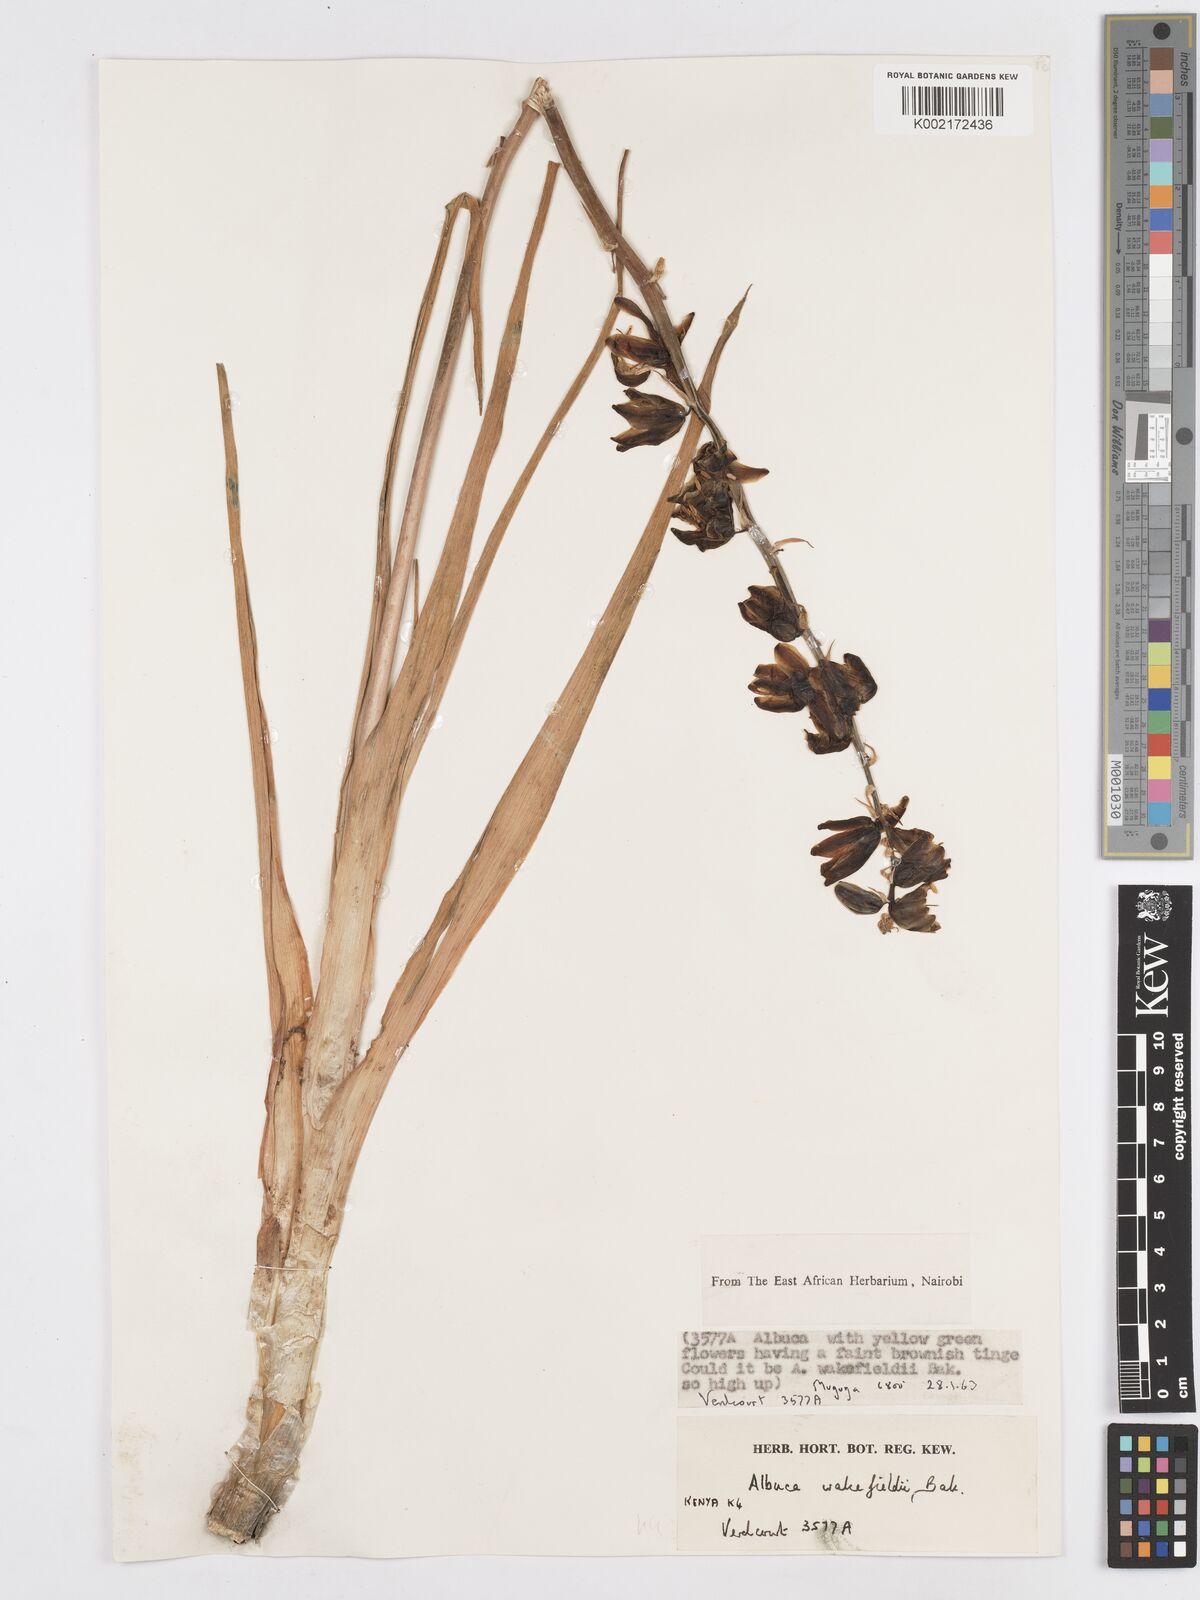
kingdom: Plantae
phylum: Tracheophyta
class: Liliopsida
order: Asparagales
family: Asparagaceae
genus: Albuca
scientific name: Albuca abyssinica
